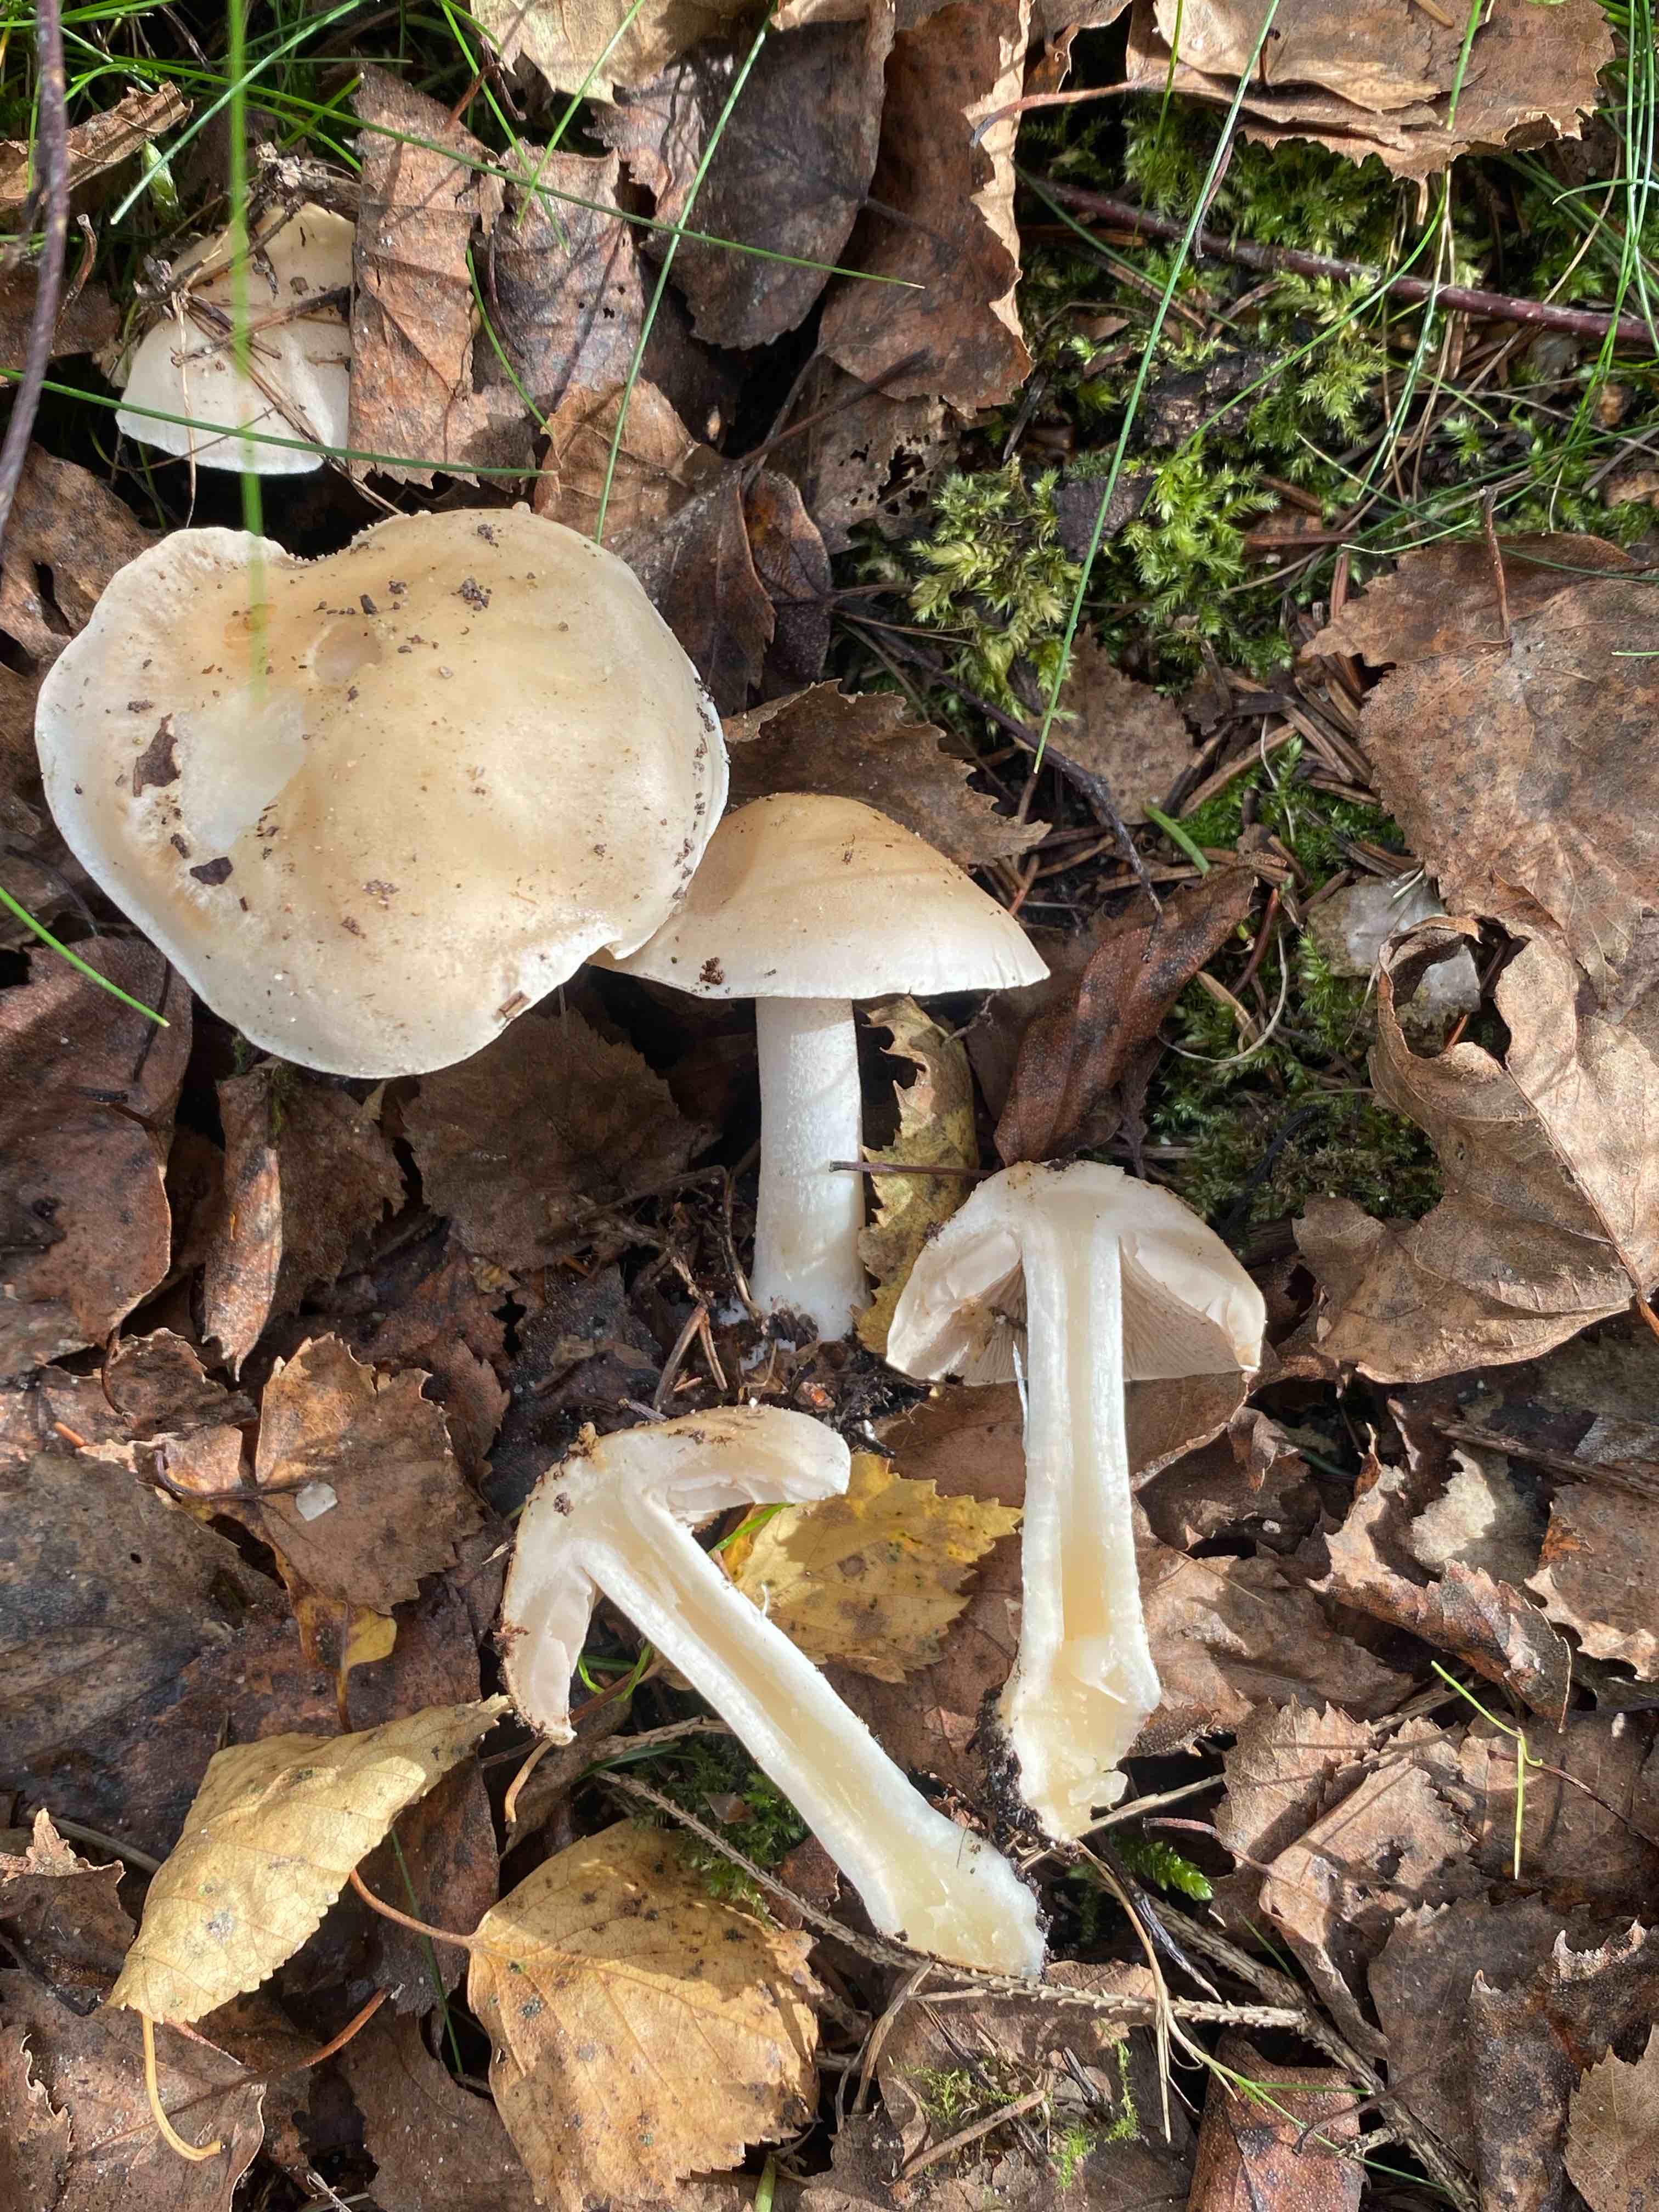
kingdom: Fungi
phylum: Basidiomycota
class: Agaricomycetes
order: Agaricales
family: Hymenogastraceae
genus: Hebeloma
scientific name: Hebeloma
